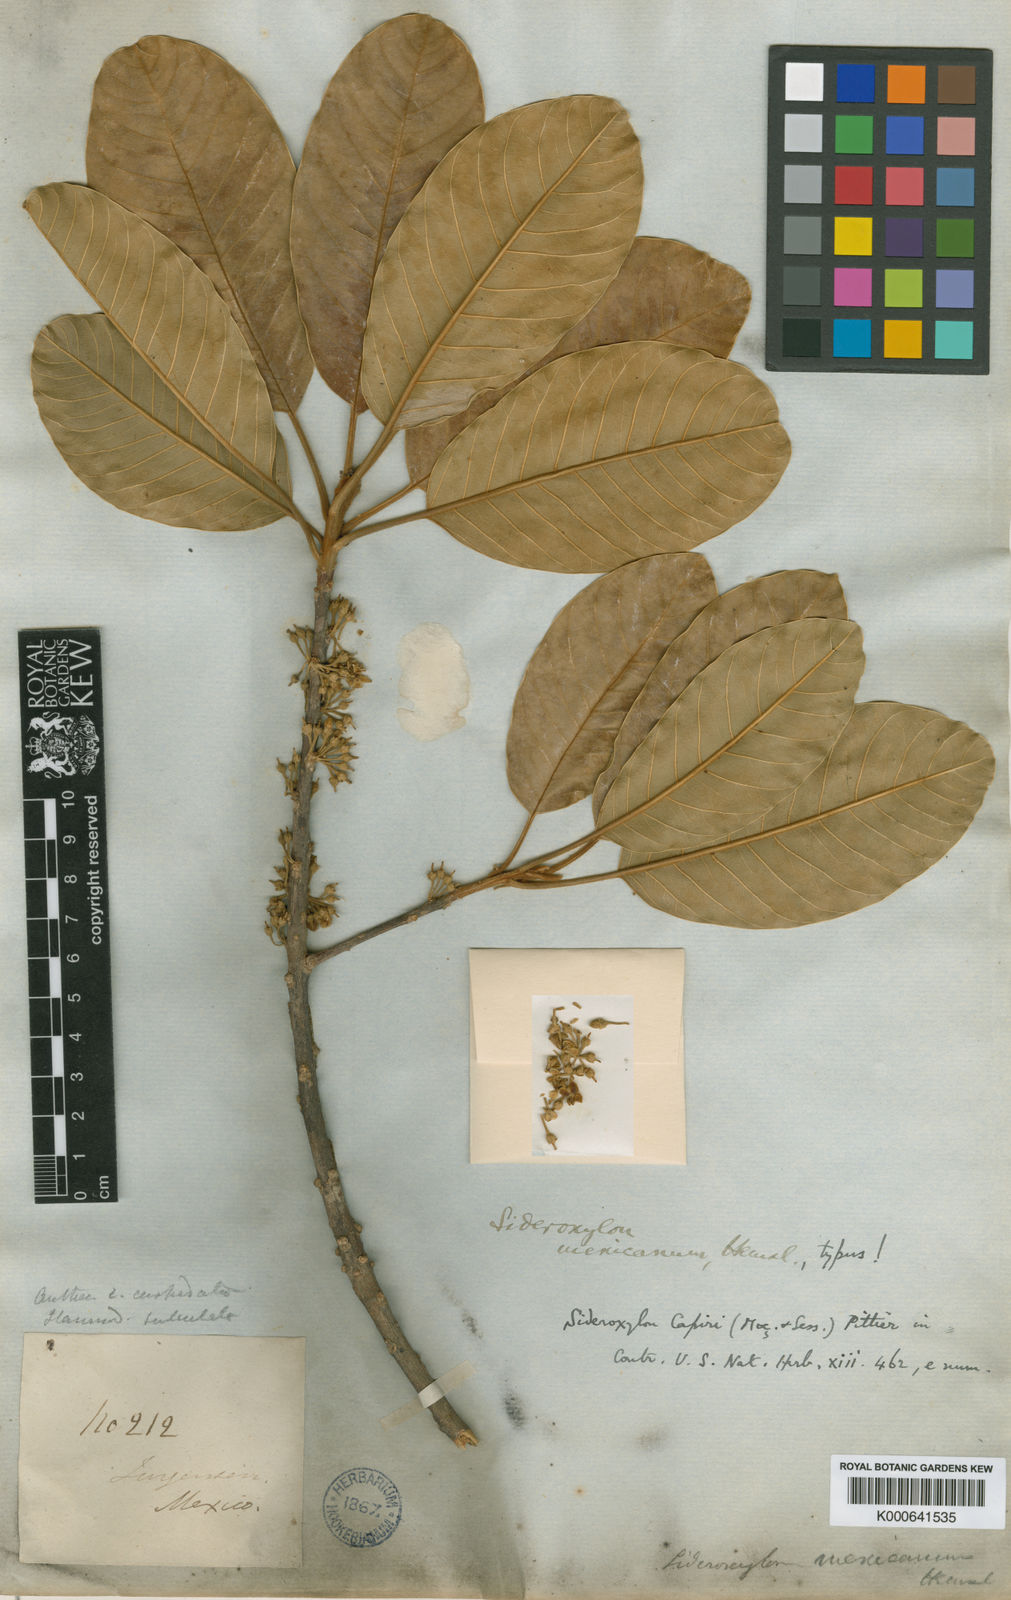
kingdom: Plantae
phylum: Tracheophyta
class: Magnoliopsida
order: Ericales
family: Sapotaceae
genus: Sideroxylon
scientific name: Sideroxylon tepicense
